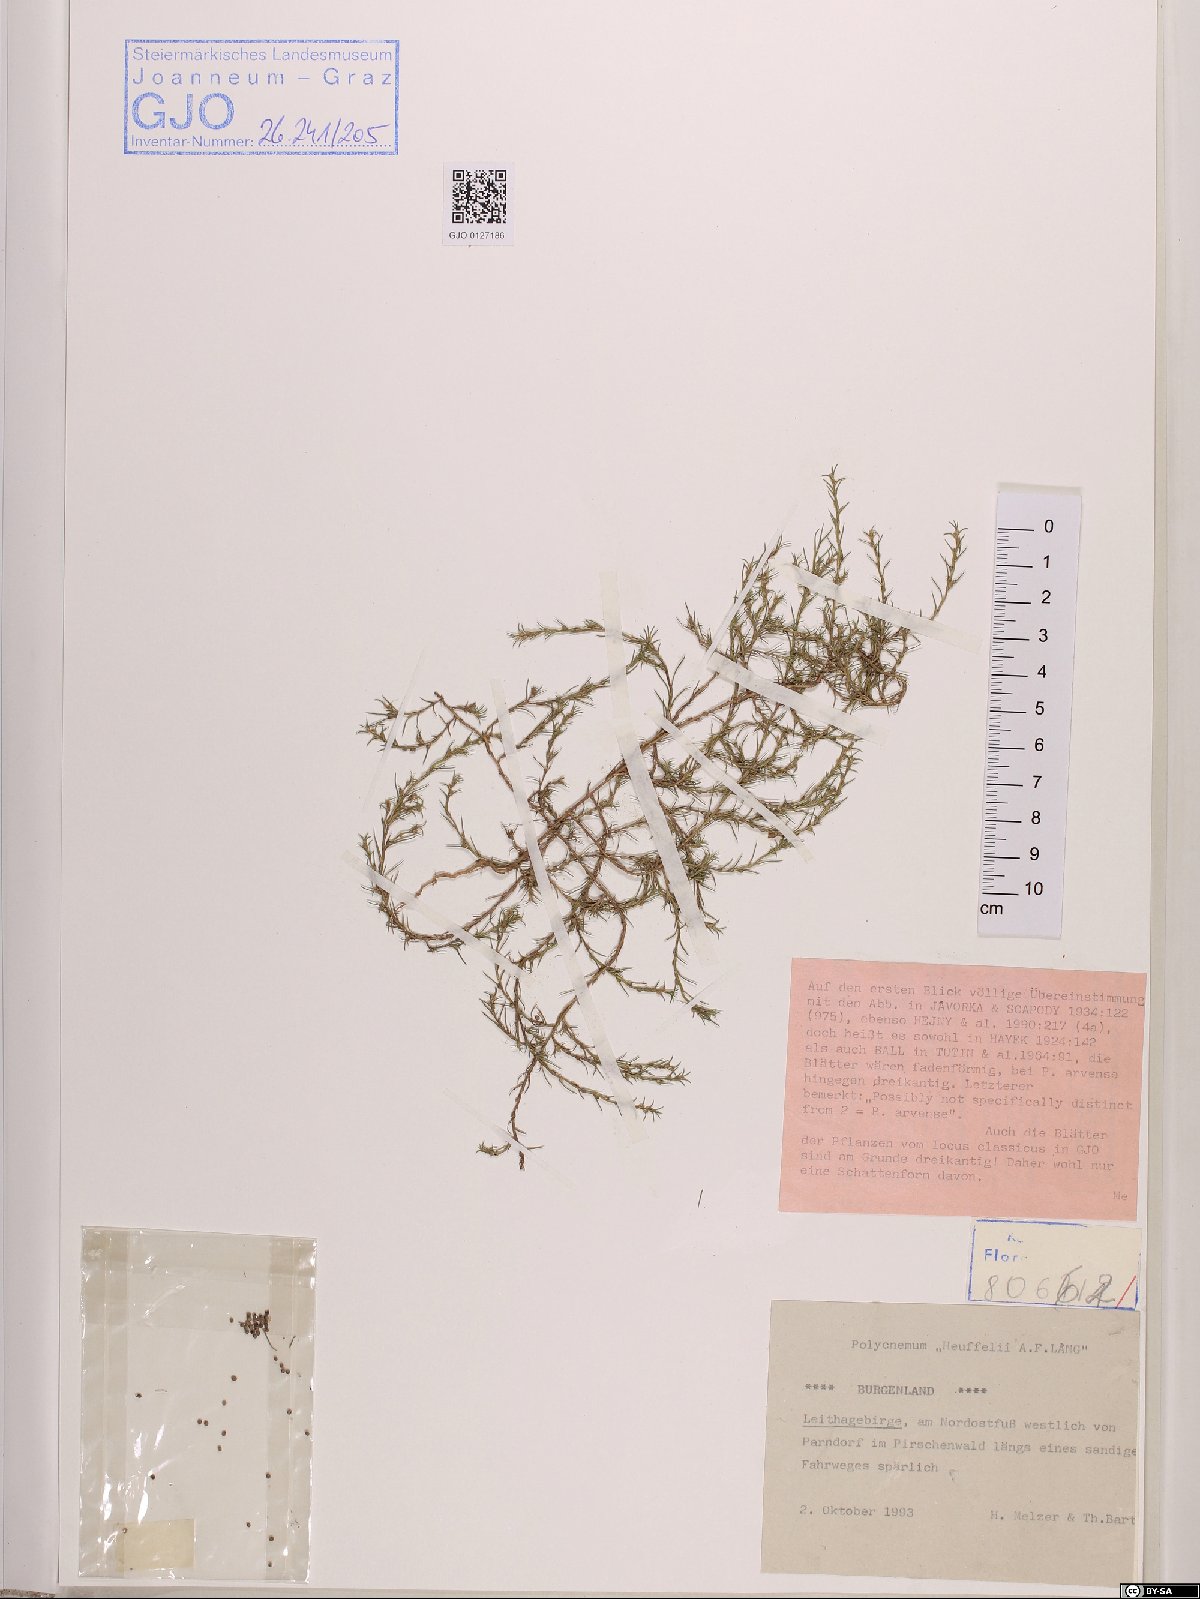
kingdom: Plantae
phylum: Tracheophyta
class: Magnoliopsida
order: Caryophyllales
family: Amaranthaceae
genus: Polycnemum
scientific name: Polycnemum heuffelii
